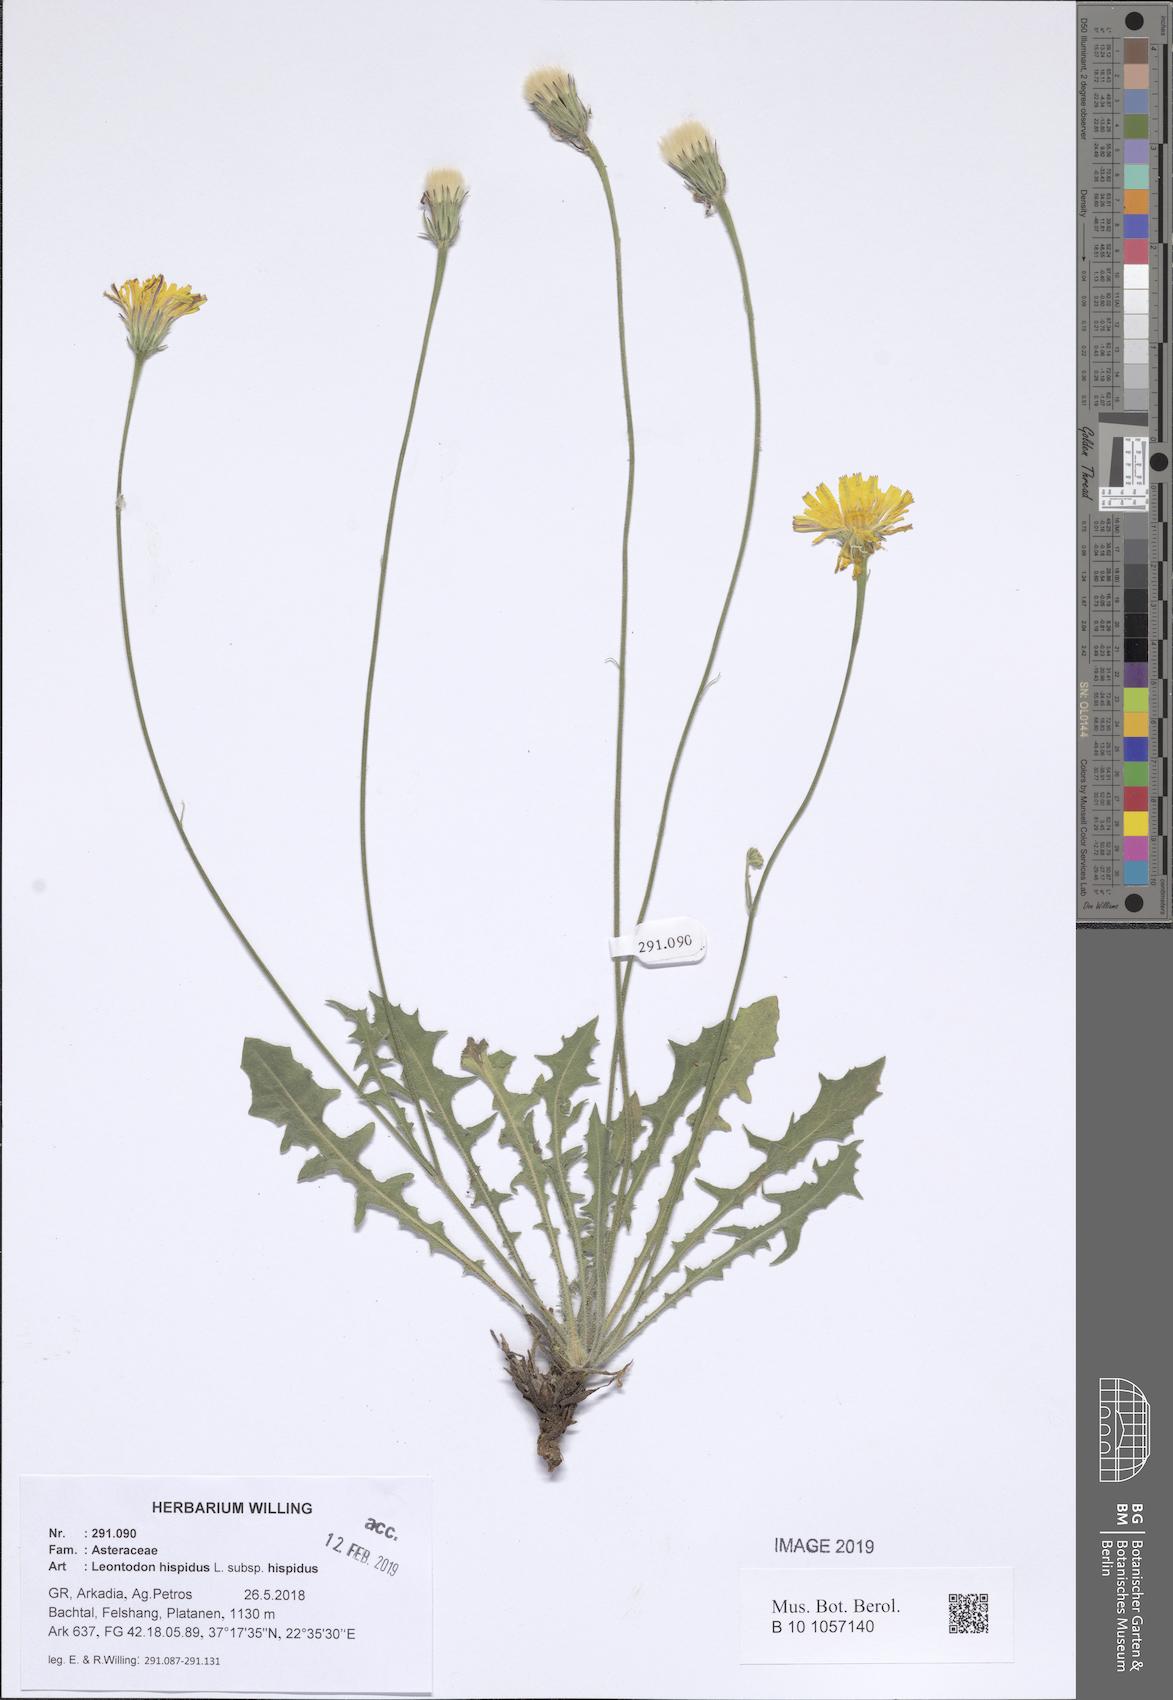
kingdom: Plantae
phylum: Tracheophyta
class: Magnoliopsida
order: Asterales
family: Asteraceae
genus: Leontodon
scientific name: Leontodon hispidus
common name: Rough hawkbit
